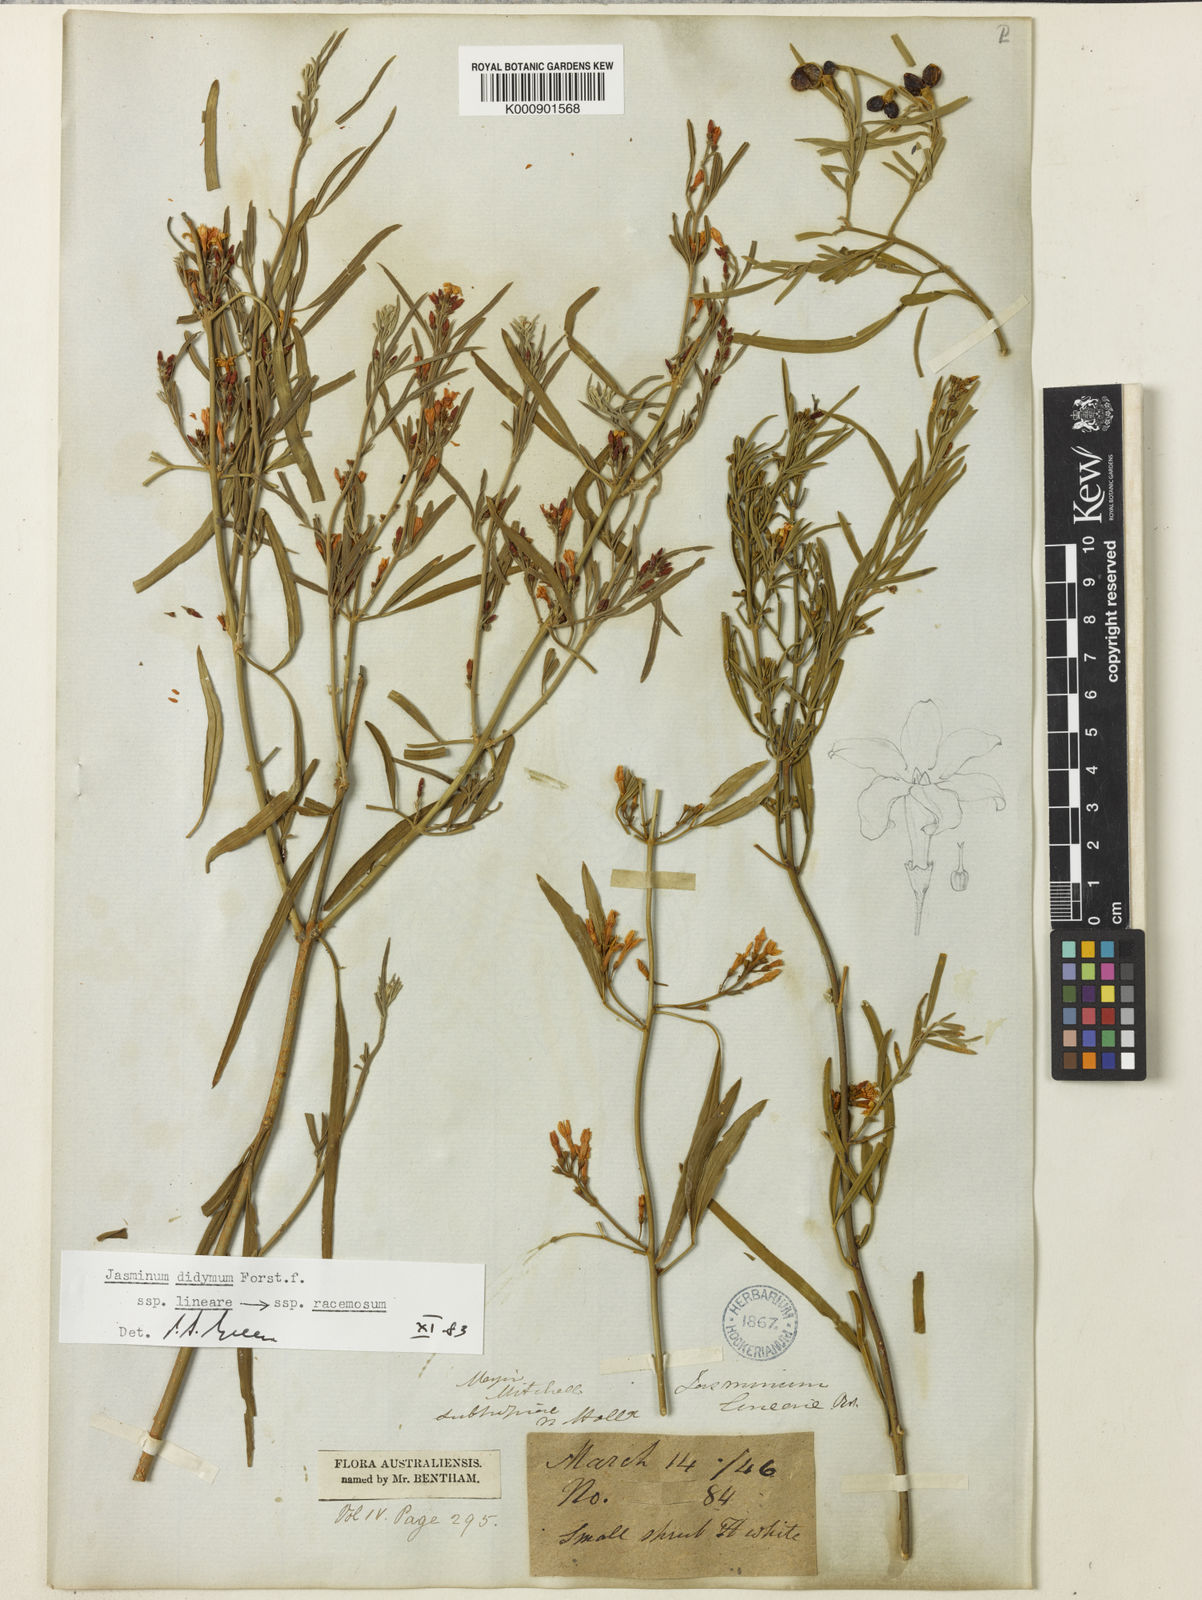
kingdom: Plantae
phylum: Tracheophyta
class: Magnoliopsida
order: Lamiales
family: Oleaceae
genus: Jasminum
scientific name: Jasminum didymum
